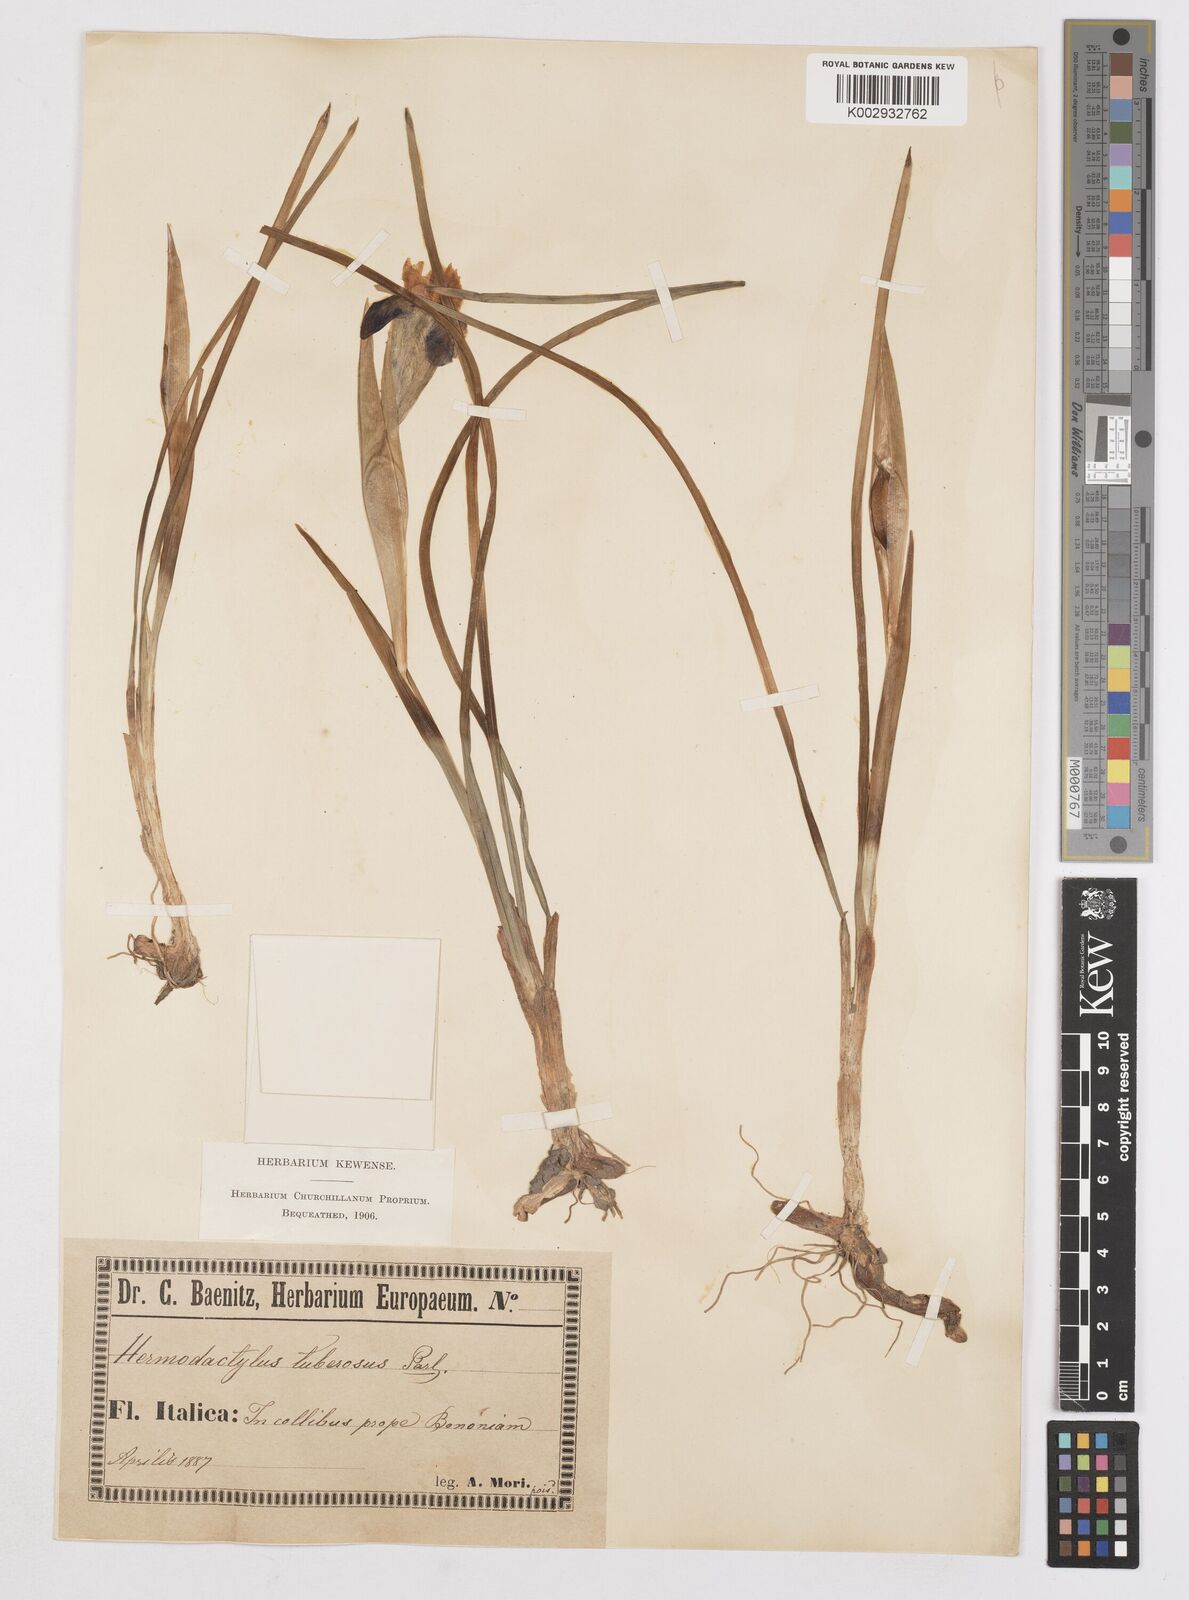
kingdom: Plantae
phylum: Tracheophyta
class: Liliopsida
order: Asparagales
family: Iridaceae
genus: Iris
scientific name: Iris tuberosa
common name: Snake's-head iris
